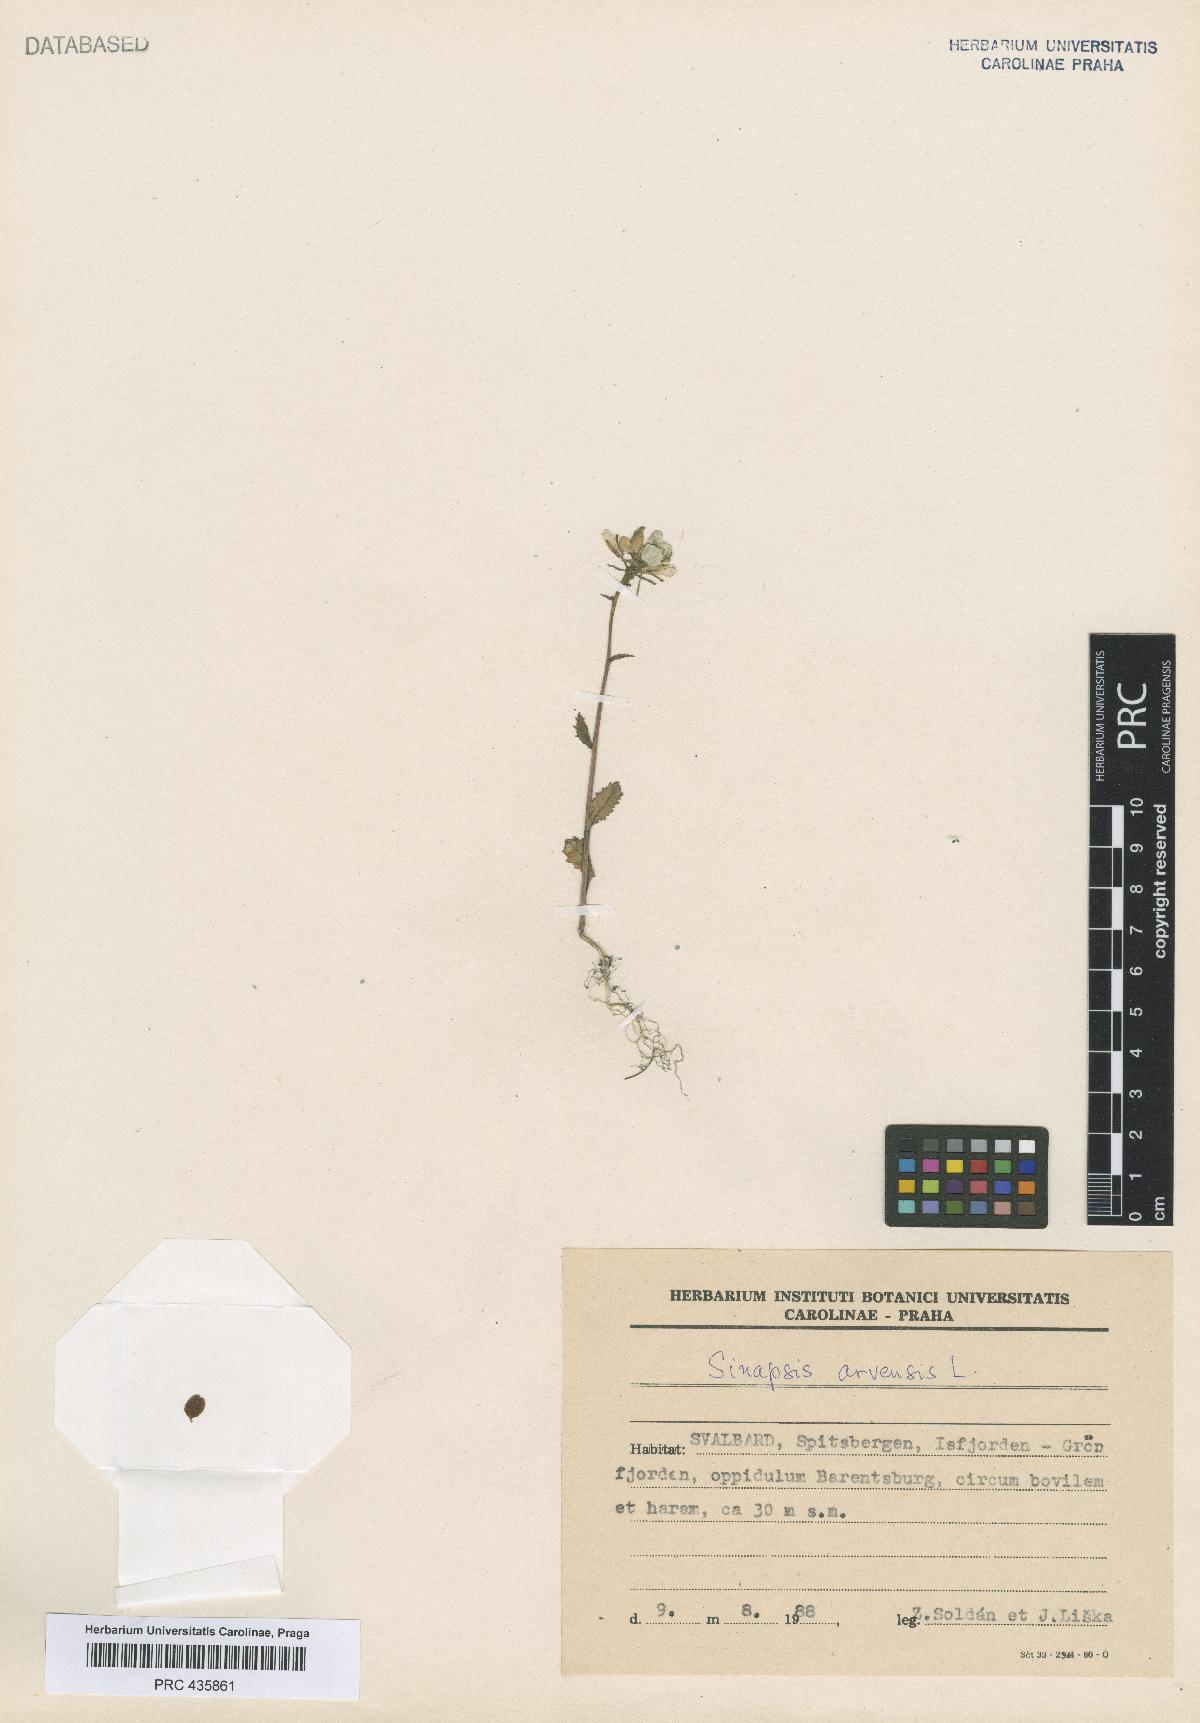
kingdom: Plantae
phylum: Tracheophyta
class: Magnoliopsida
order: Brassicales
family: Brassicaceae
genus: Sinapis
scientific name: Sinapis arvensis
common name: Charlock
